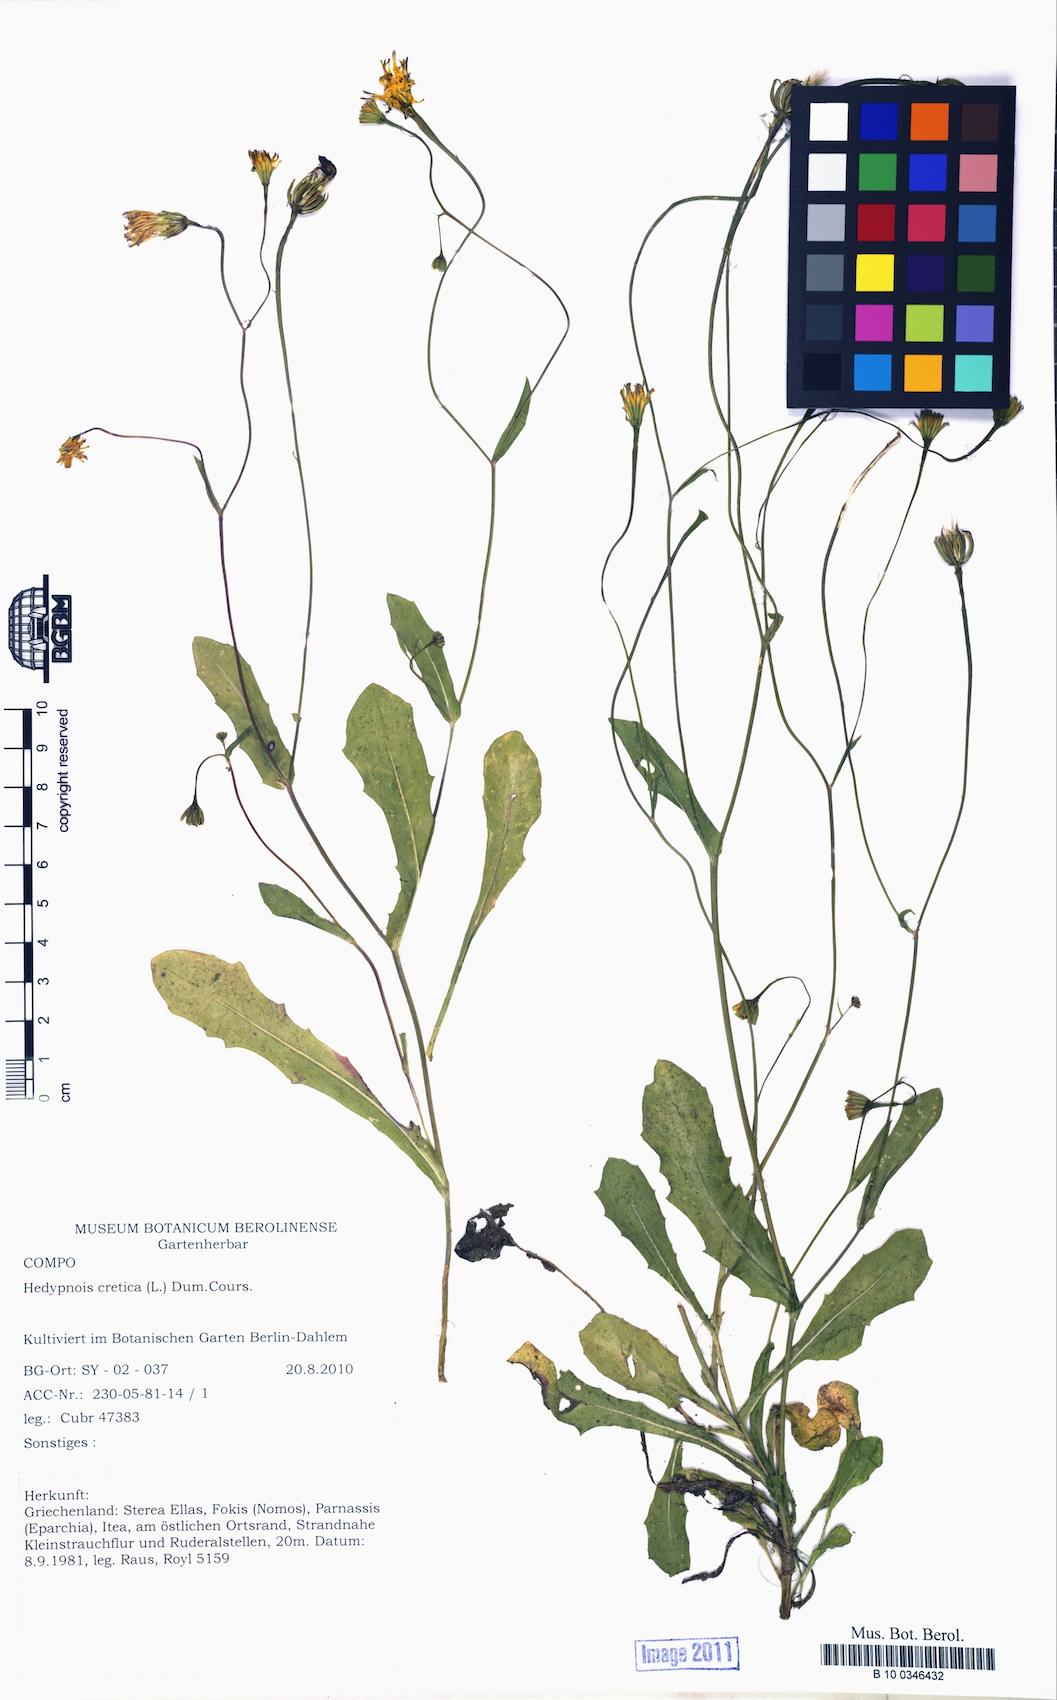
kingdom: Plantae
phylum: Tracheophyta
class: Magnoliopsida
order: Asterales
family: Asteraceae
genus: Hedypnois
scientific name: Hedypnois cretica
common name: Scaly hawkbit
